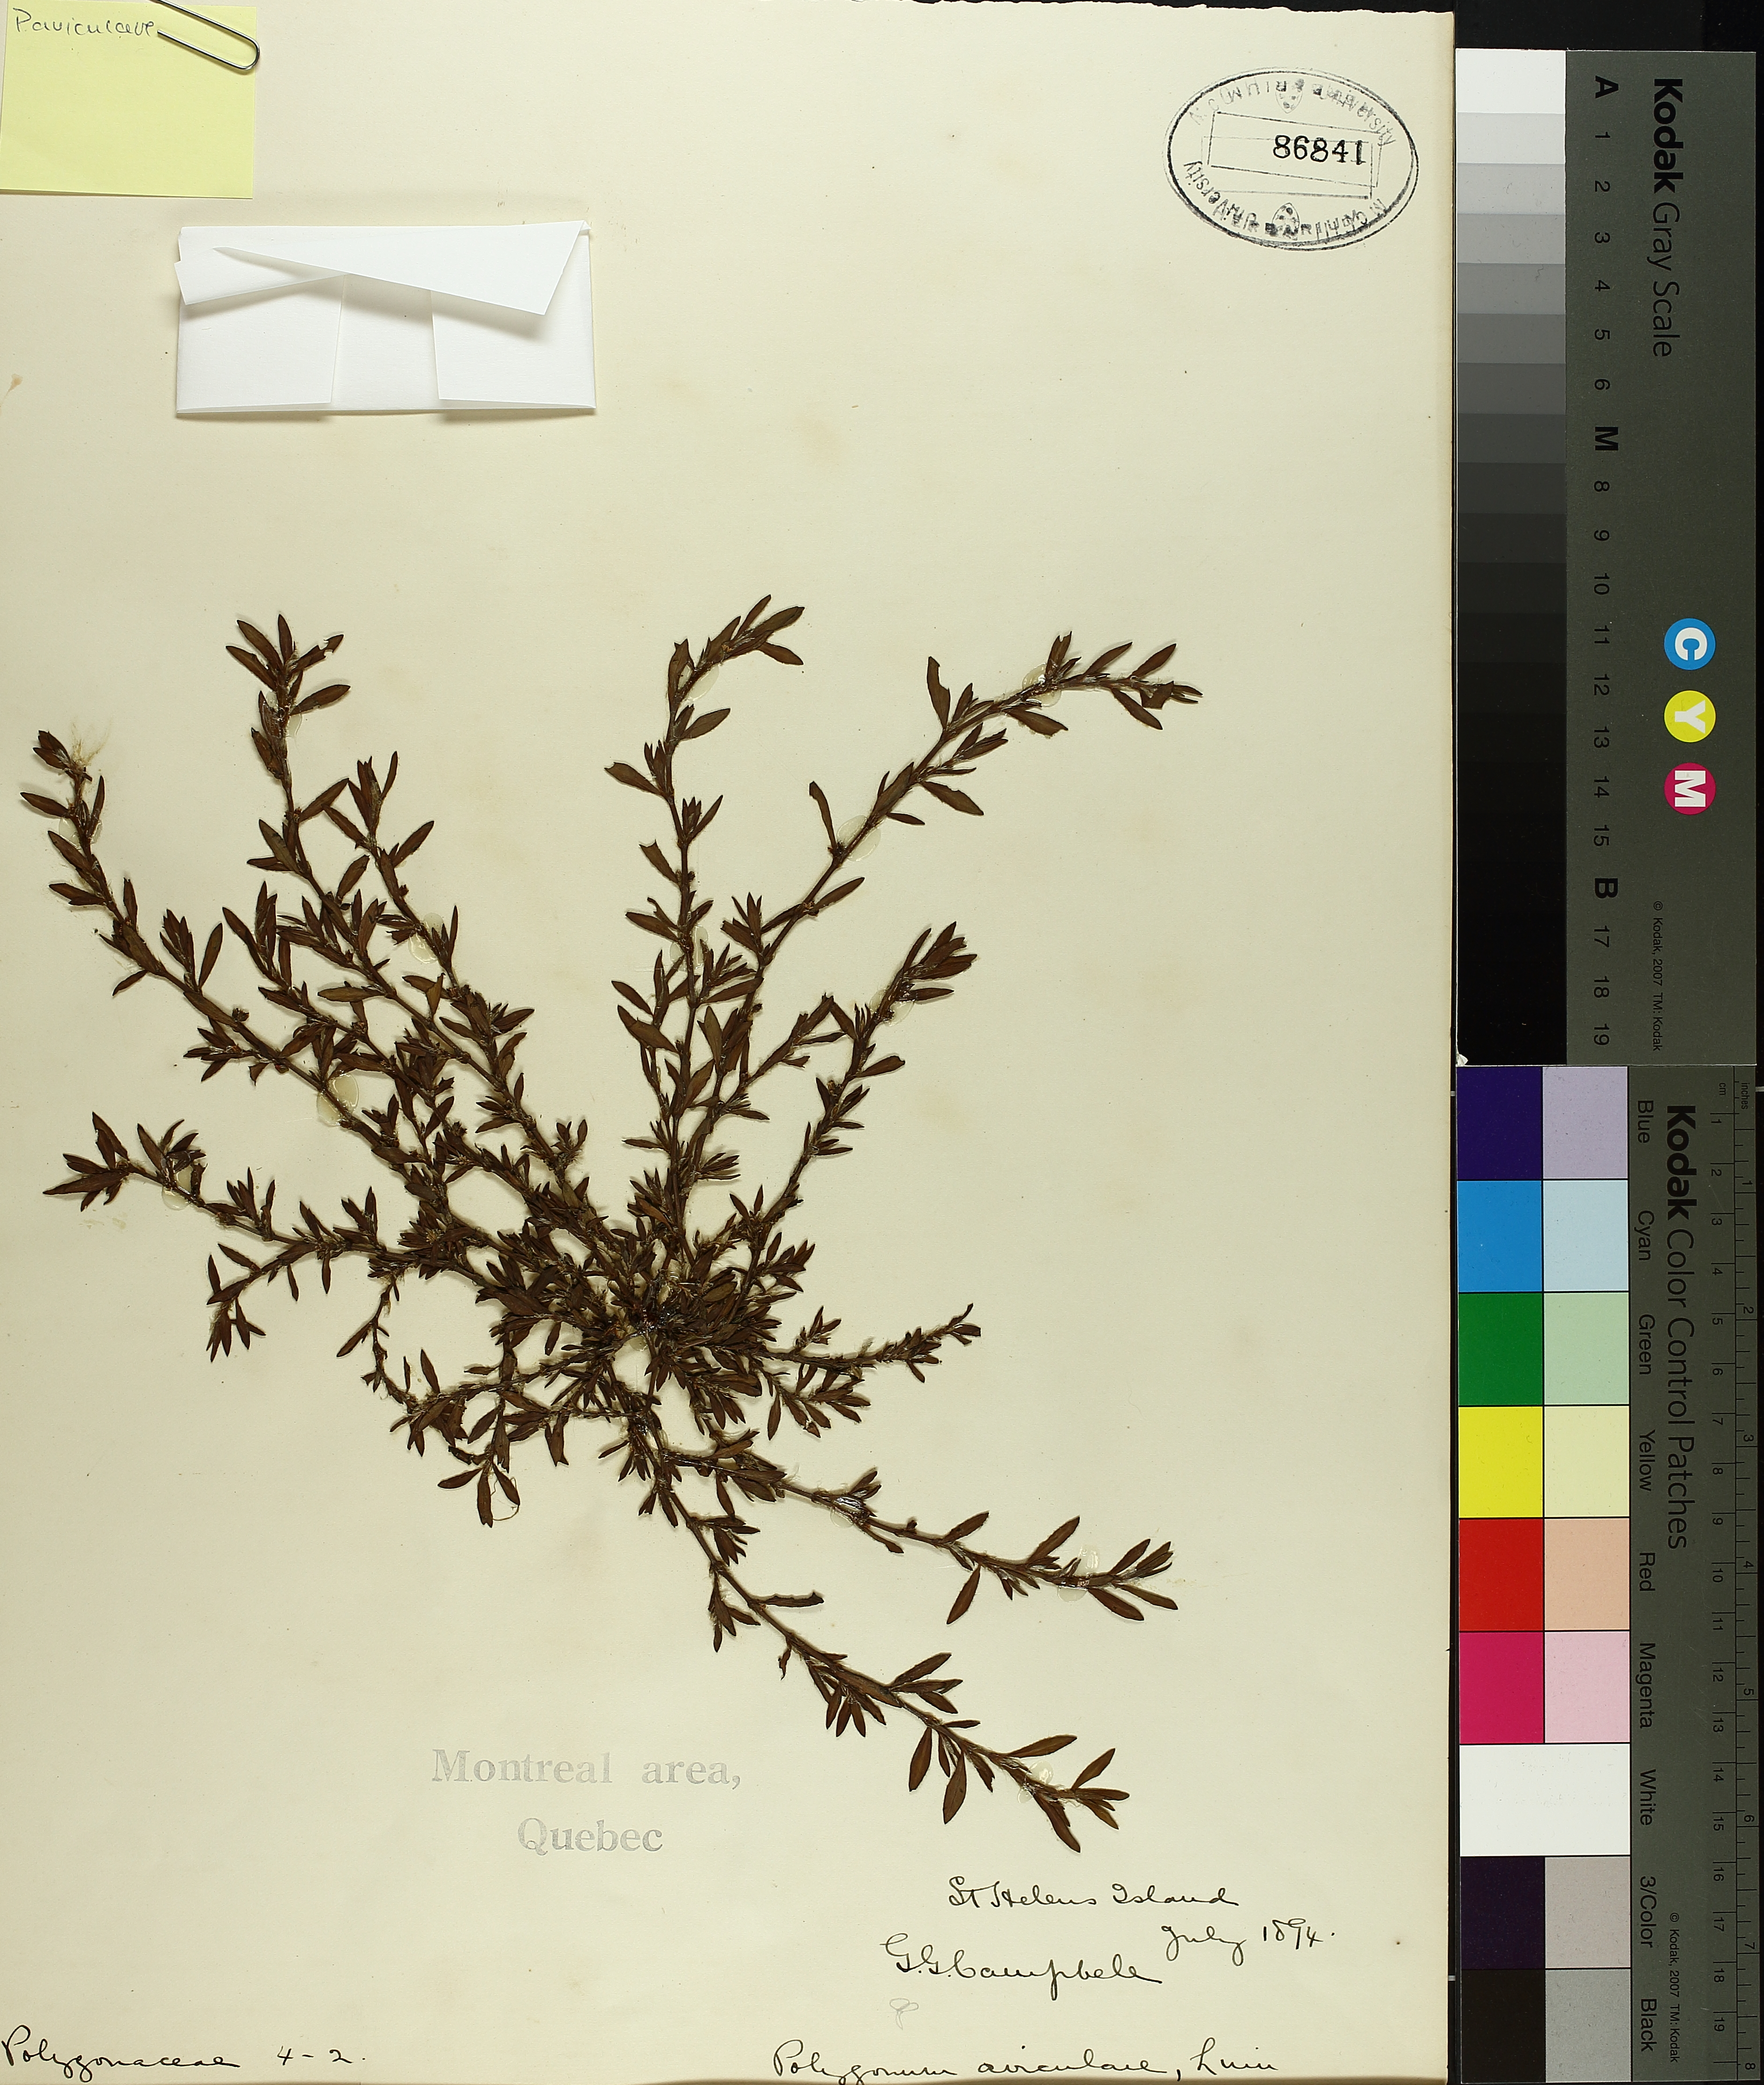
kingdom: Plantae
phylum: Tracheophyta
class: Magnoliopsida
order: Caryophyllales
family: Polygonaceae
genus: Polygonum
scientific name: Polygonum aviculare
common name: Prostrate knotweed
